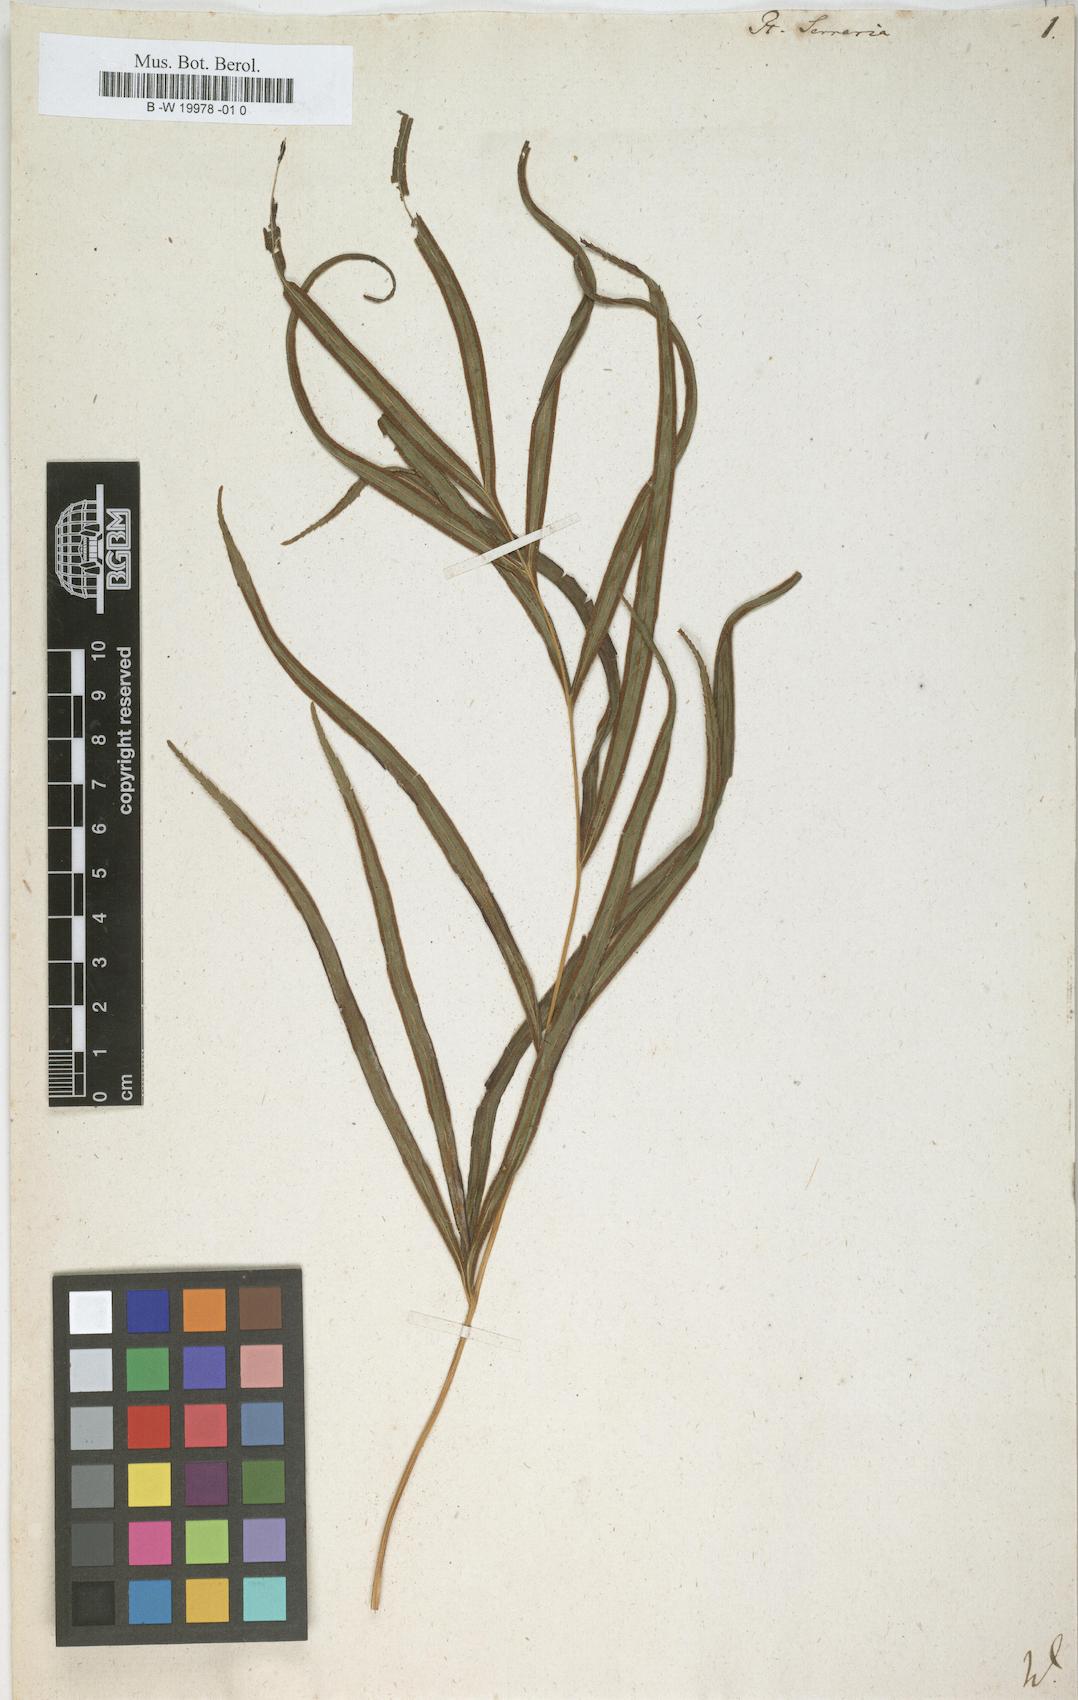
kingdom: Plantae
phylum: Tracheophyta
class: Polypodiopsida
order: Polypodiales
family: Pteridaceae
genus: Pteris
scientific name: Pteris cretica
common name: Ribbon fern
